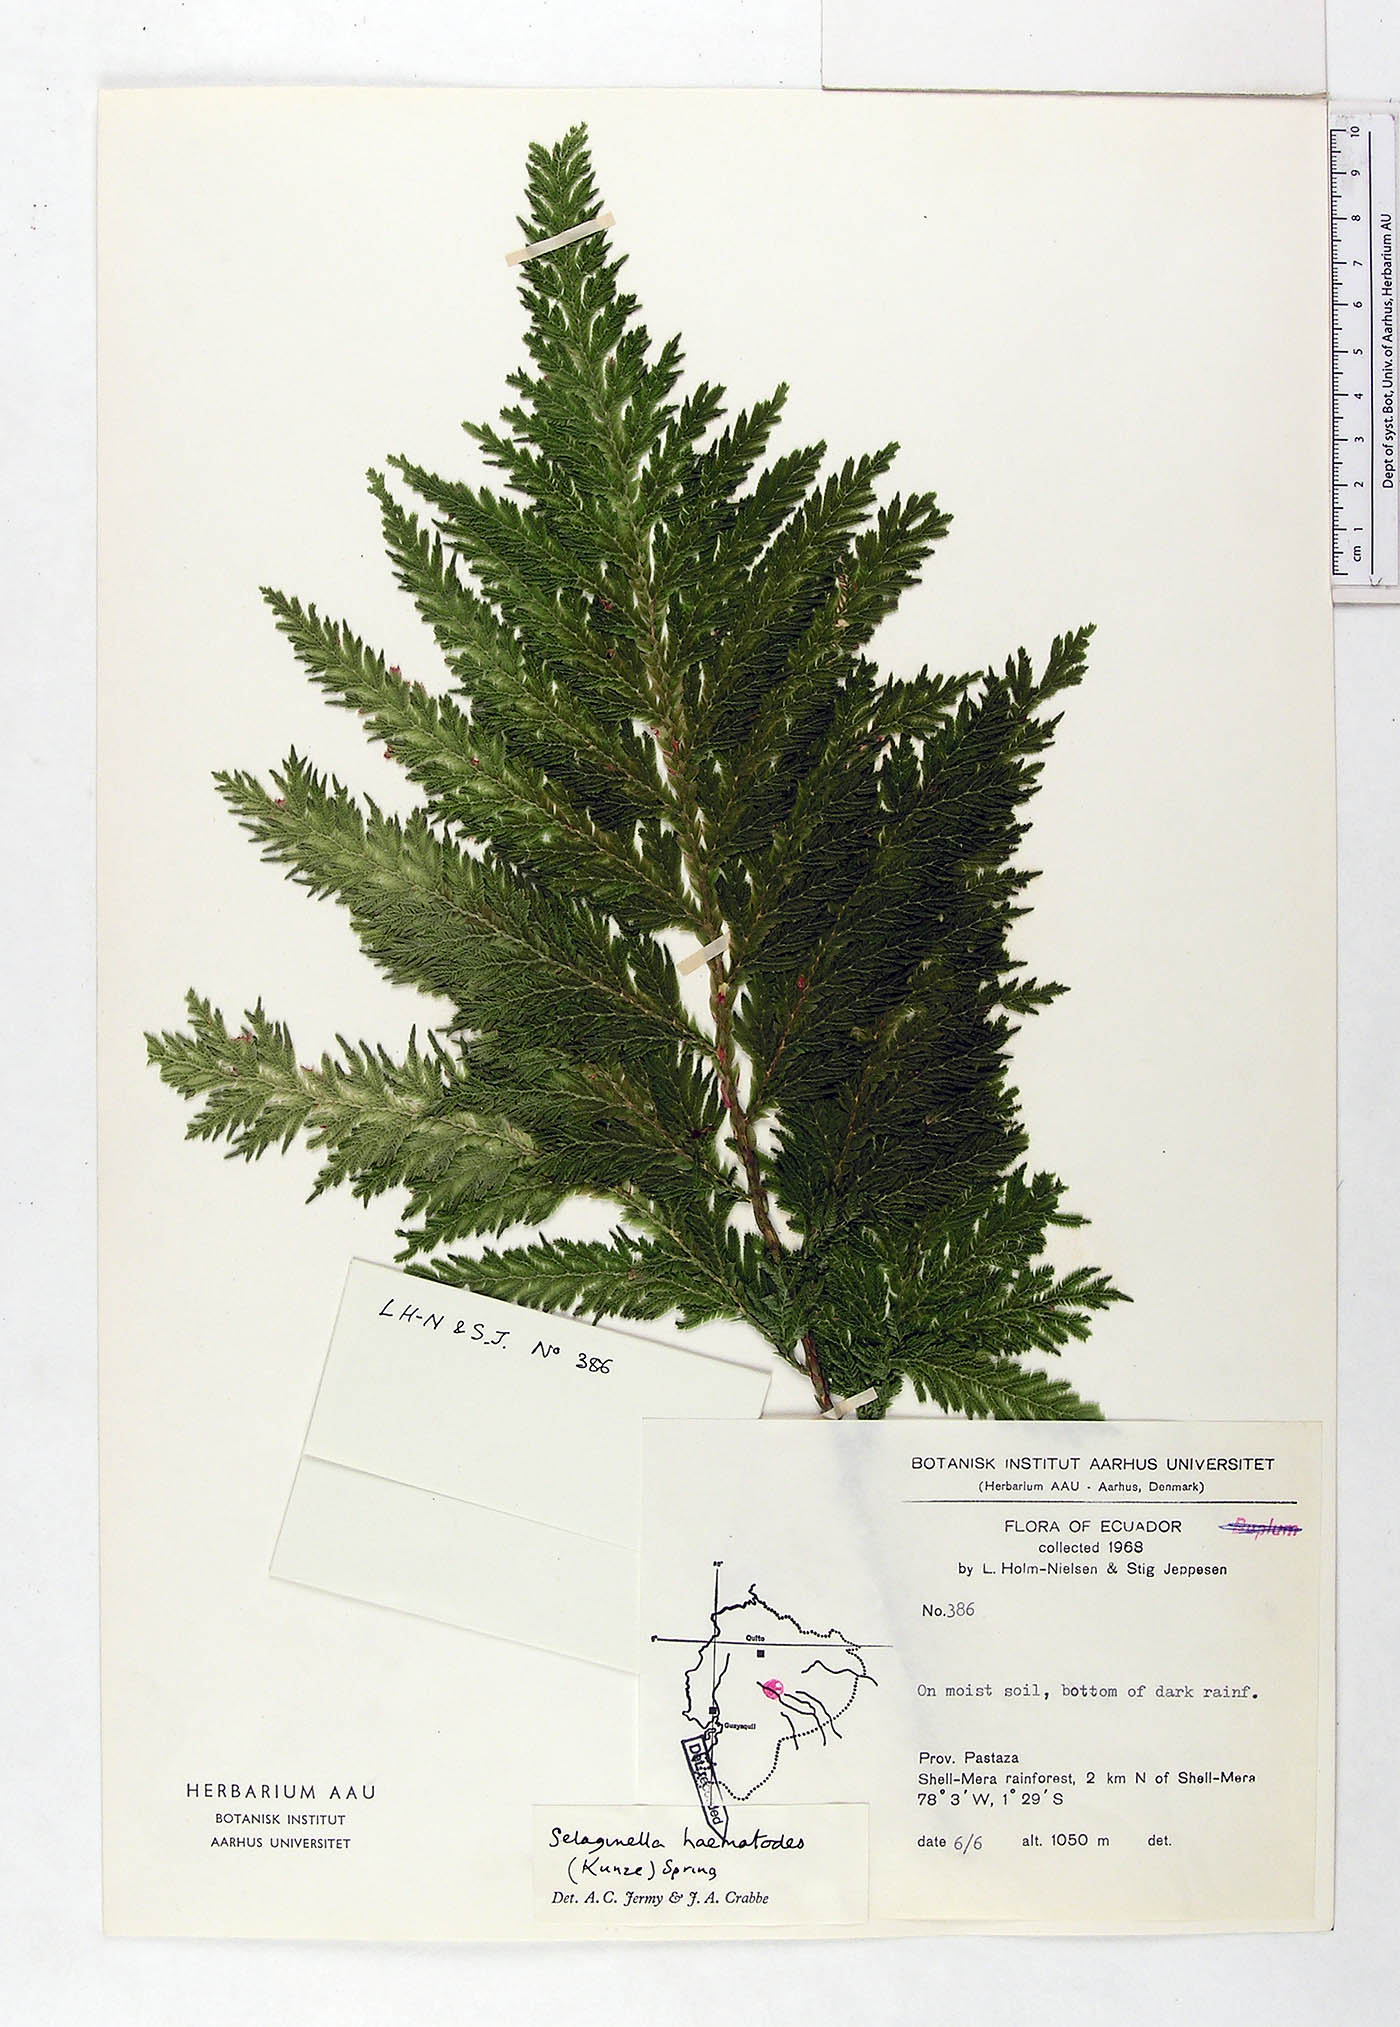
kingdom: Plantae
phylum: Tracheophyta
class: Lycopodiopsida
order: Selaginellales
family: Selaginellaceae
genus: Selaginella
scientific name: Selaginella haematodes
